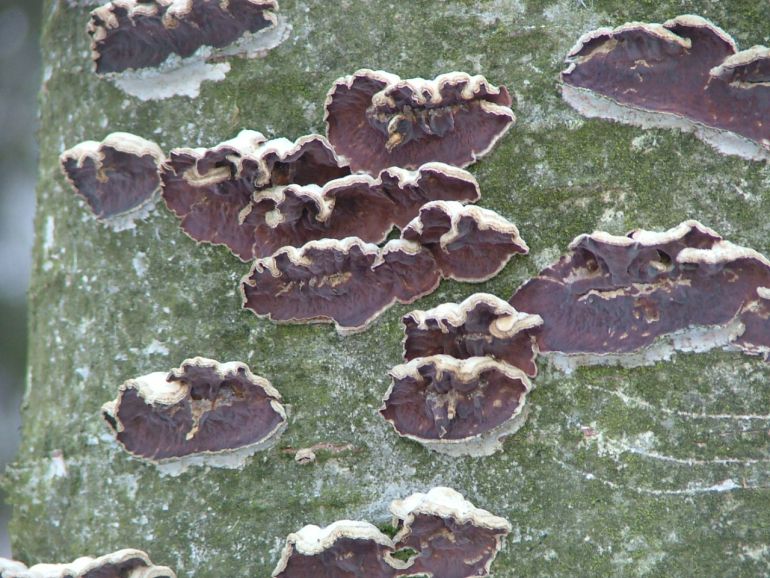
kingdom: Fungi
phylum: Basidiomycota
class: Agaricomycetes
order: Agaricales
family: Cyphellaceae
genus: Chondrostereum
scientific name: Chondrostereum purpureum
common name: purpurlædersvamp
